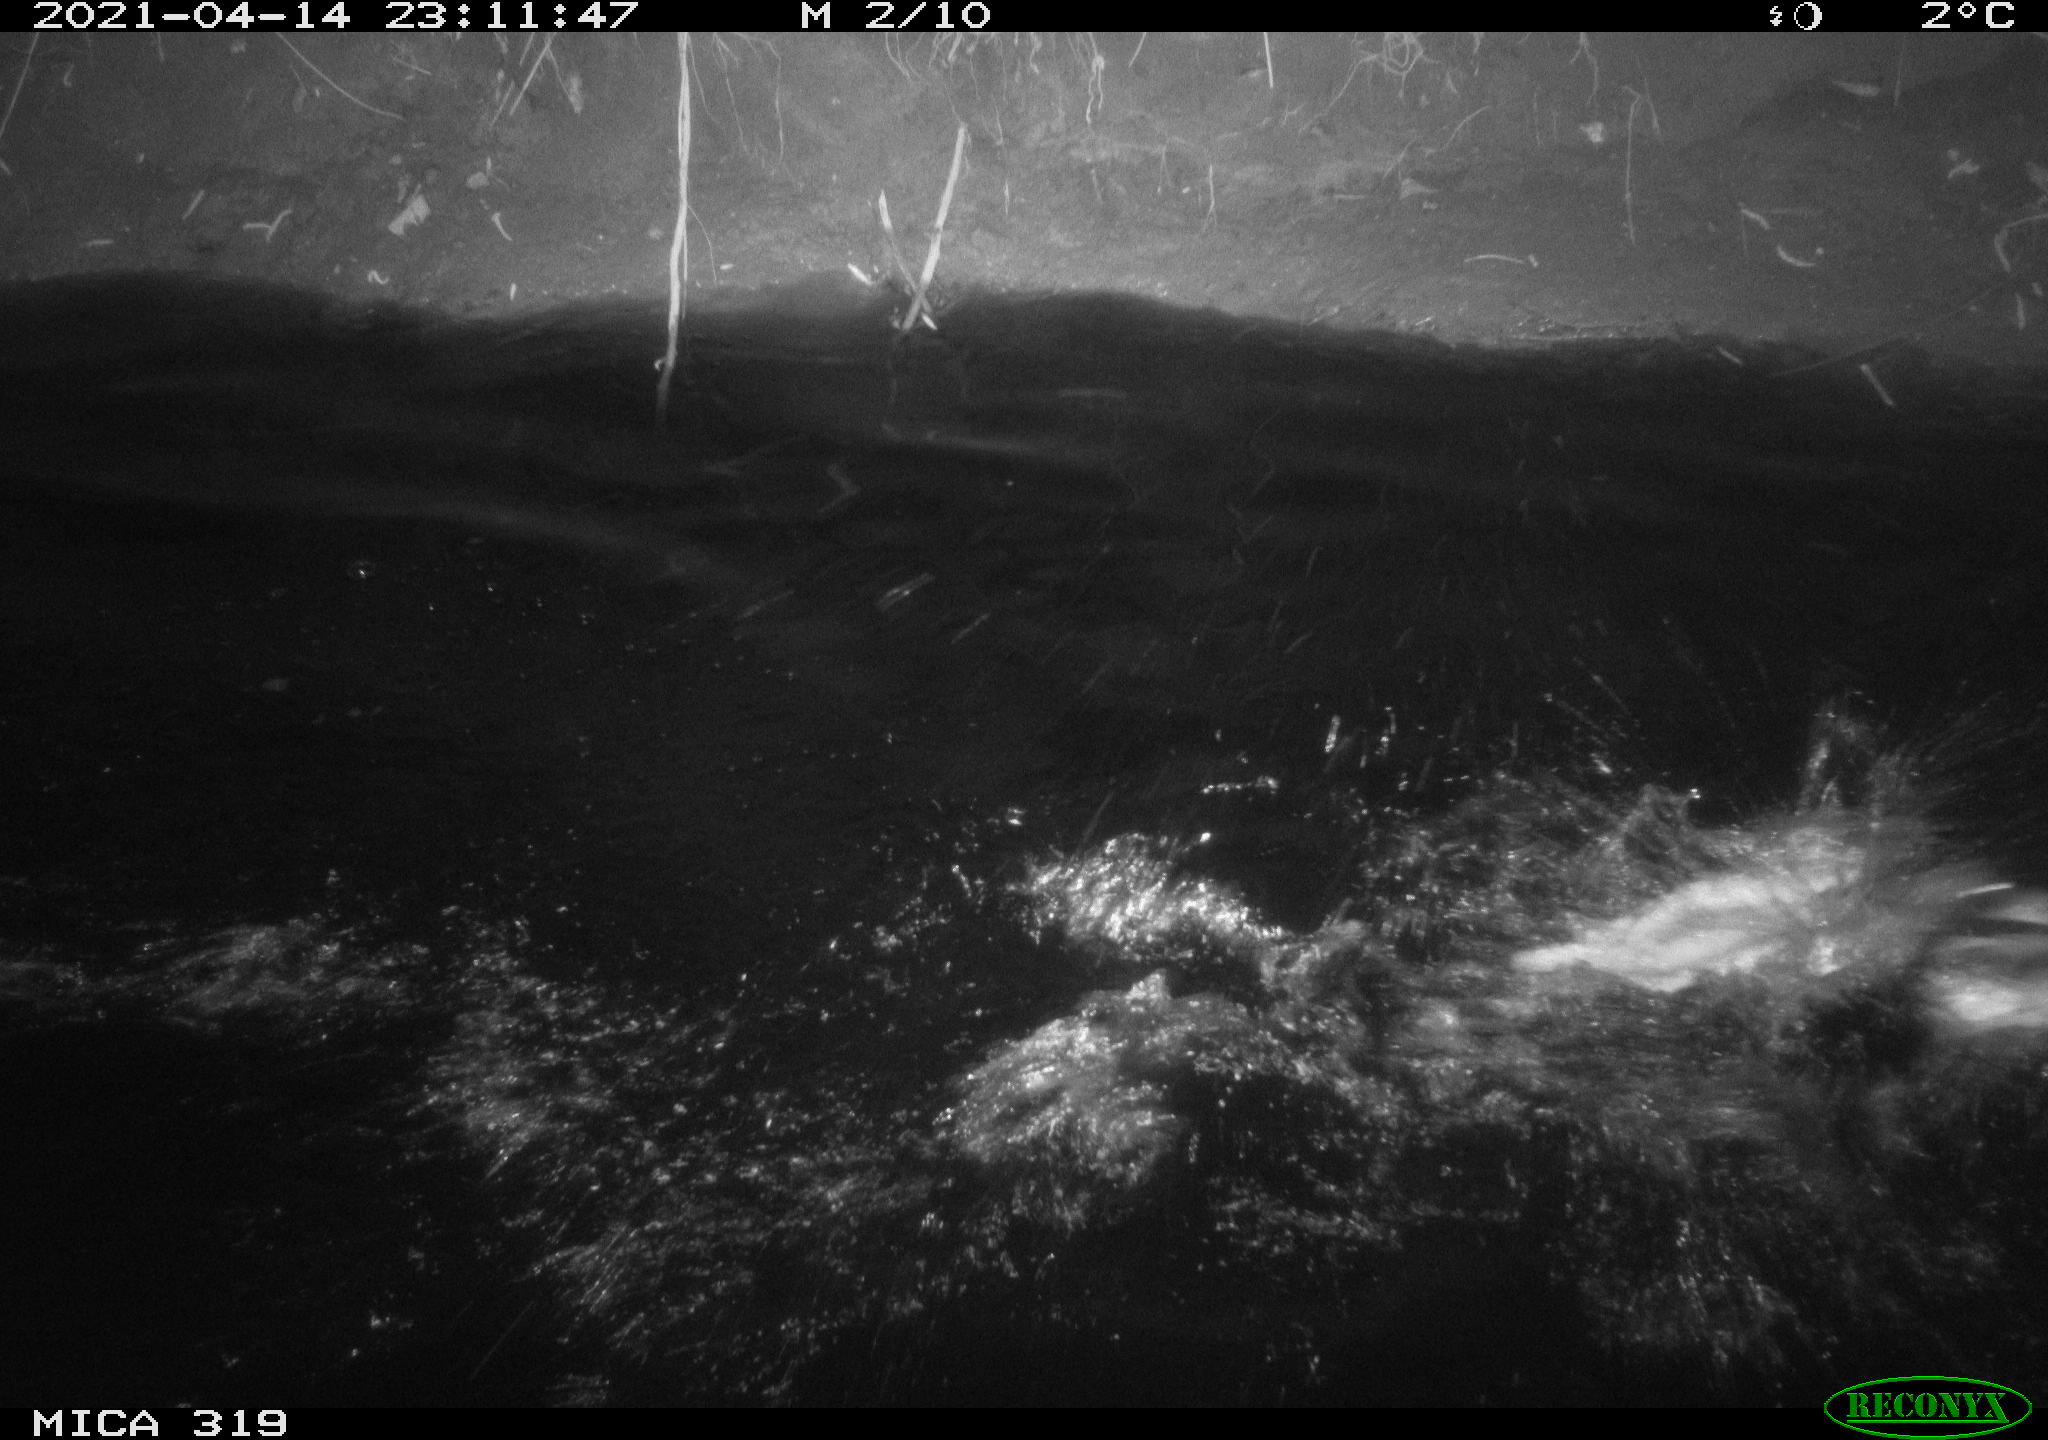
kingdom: Animalia
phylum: Chordata
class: Aves
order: Anseriformes
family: Anatidae
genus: Anas
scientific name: Anas platyrhynchos
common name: Mallard
